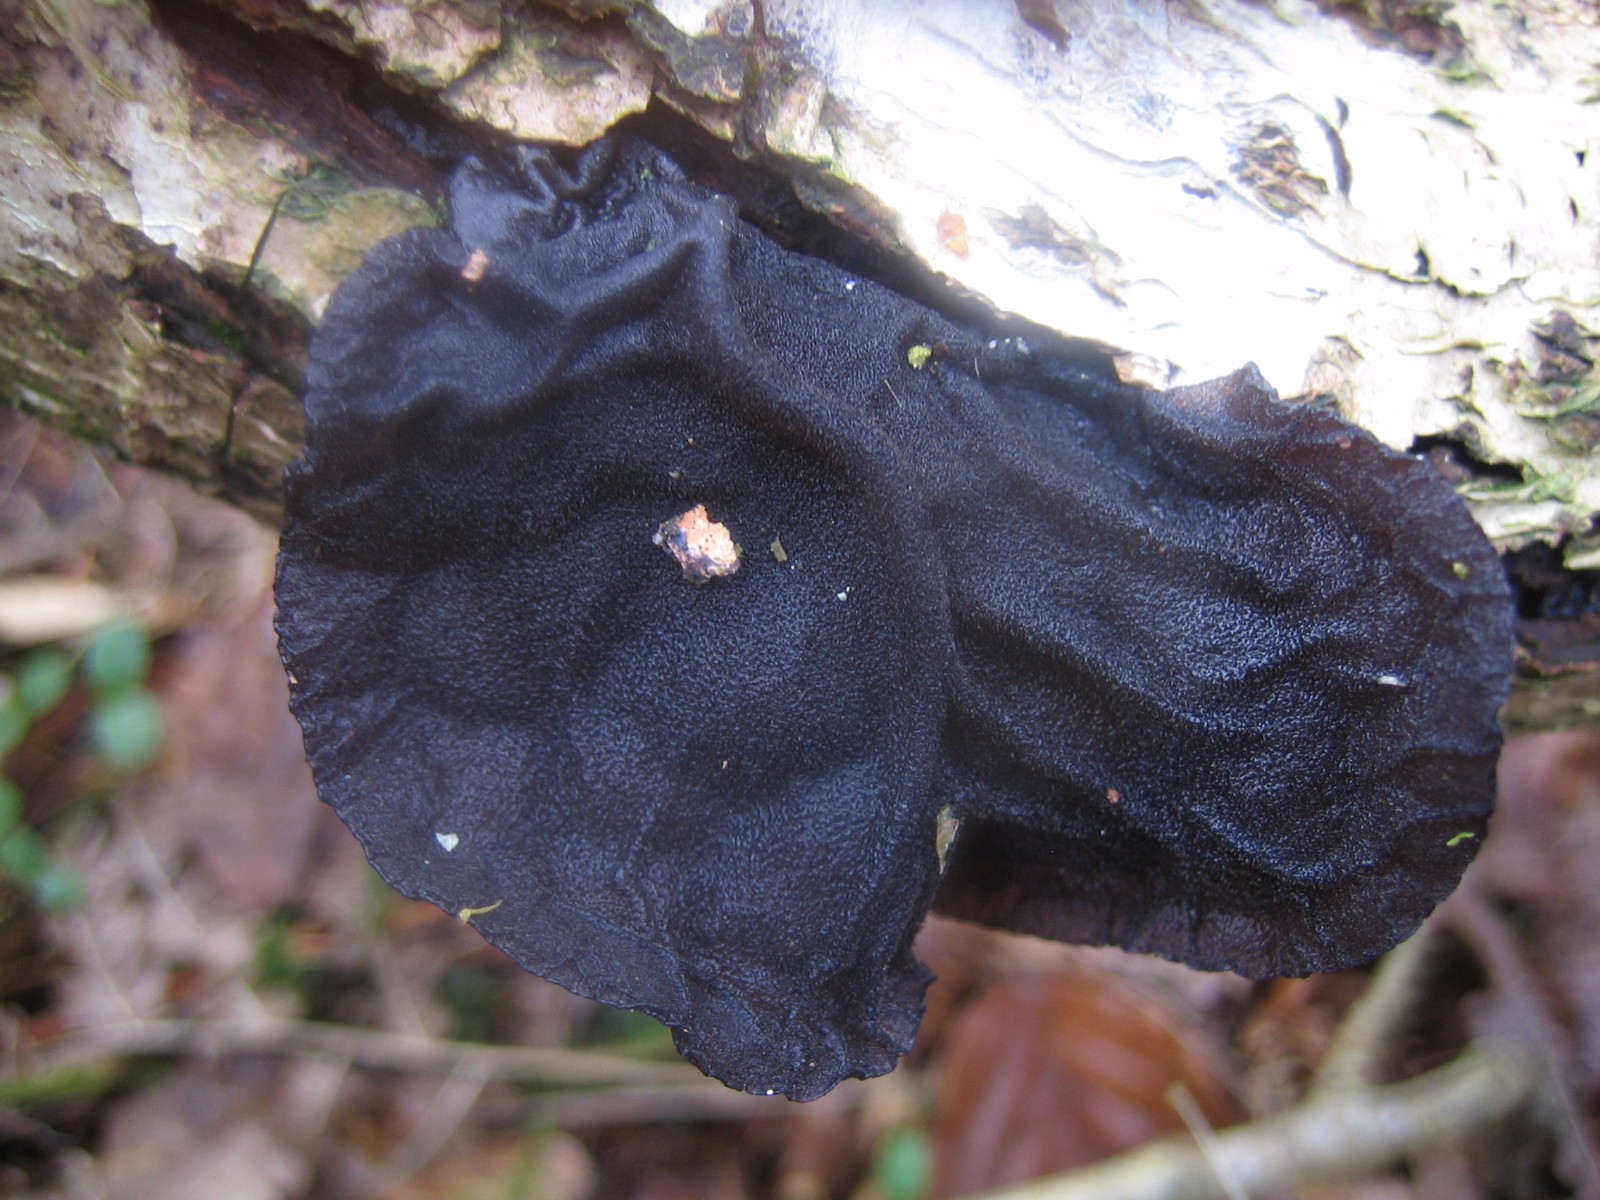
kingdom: Fungi
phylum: Basidiomycota
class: Agaricomycetes
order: Auriculariales
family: Auriculariaceae
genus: Exidia
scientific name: Exidia glandulosa
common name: ege-bævretop
